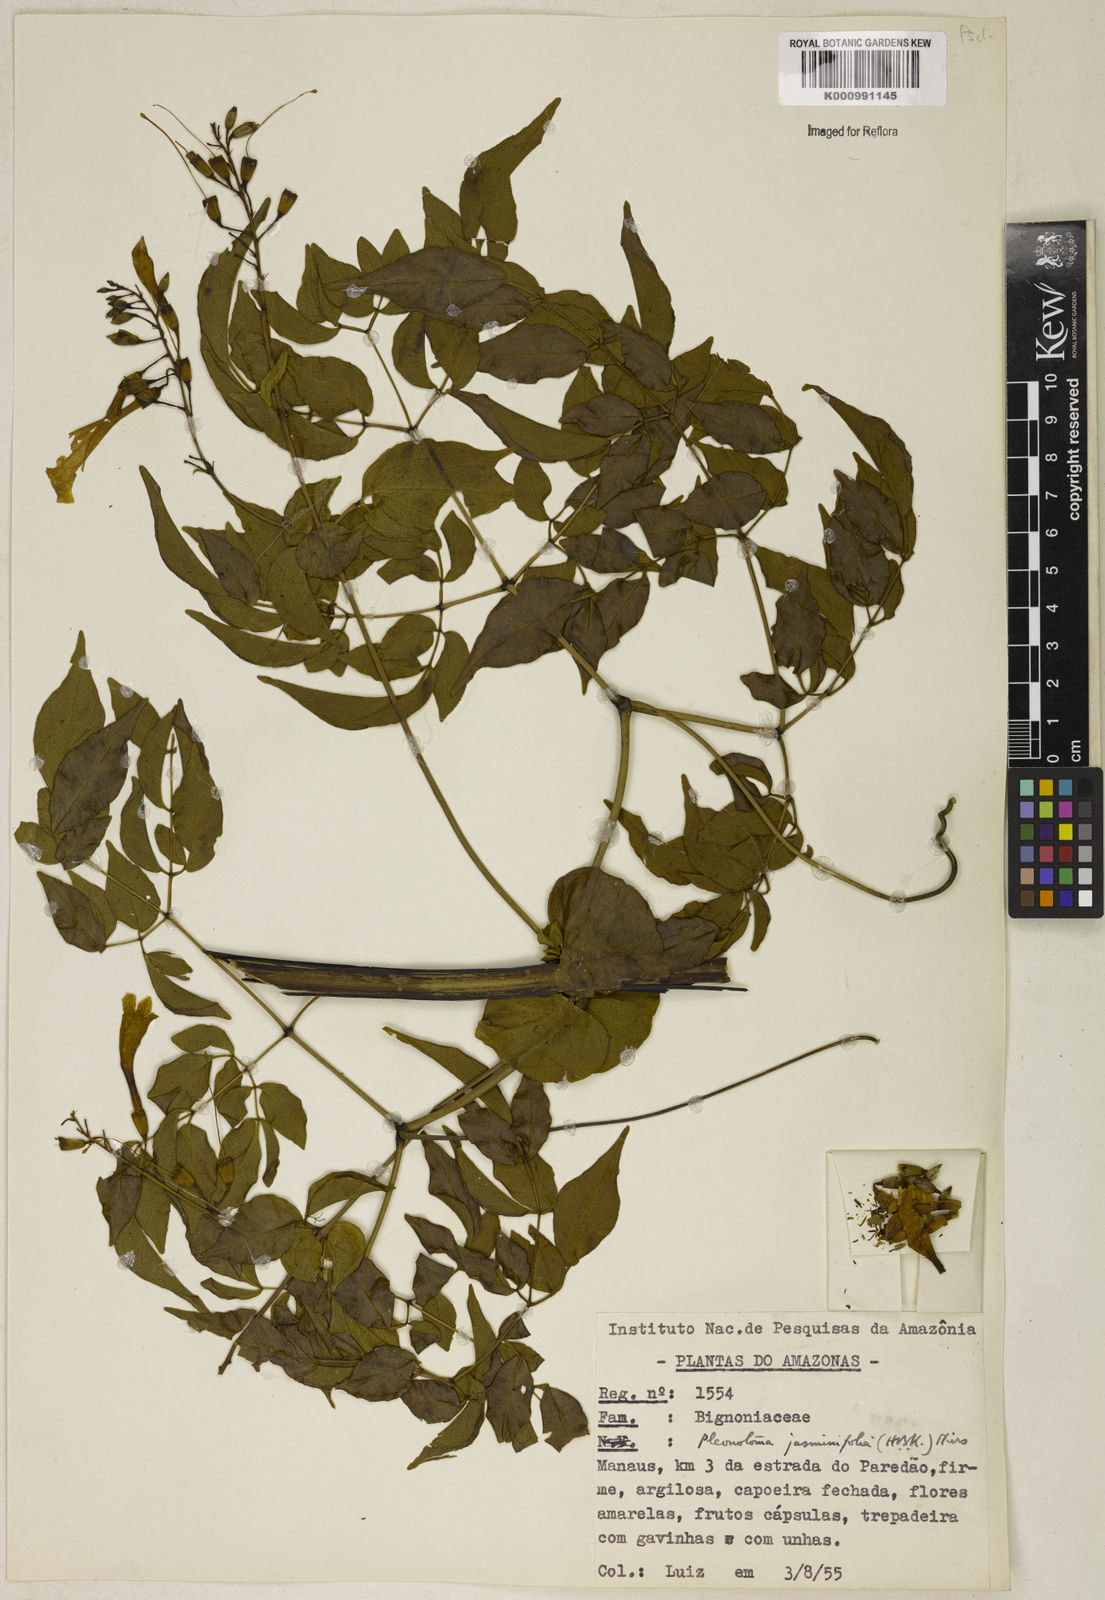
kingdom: Plantae
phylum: Tracheophyta
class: Magnoliopsida
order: Lamiales
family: Bignoniaceae
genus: Pleonotoma
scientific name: Pleonotoma jasminifolia
